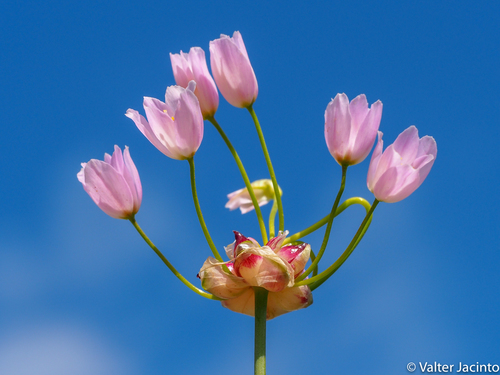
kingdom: Plantae
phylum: Tracheophyta
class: Liliopsida
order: Asparagales
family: Amaryllidaceae
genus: Allium
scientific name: Allium roseum
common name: Rosy garlic
